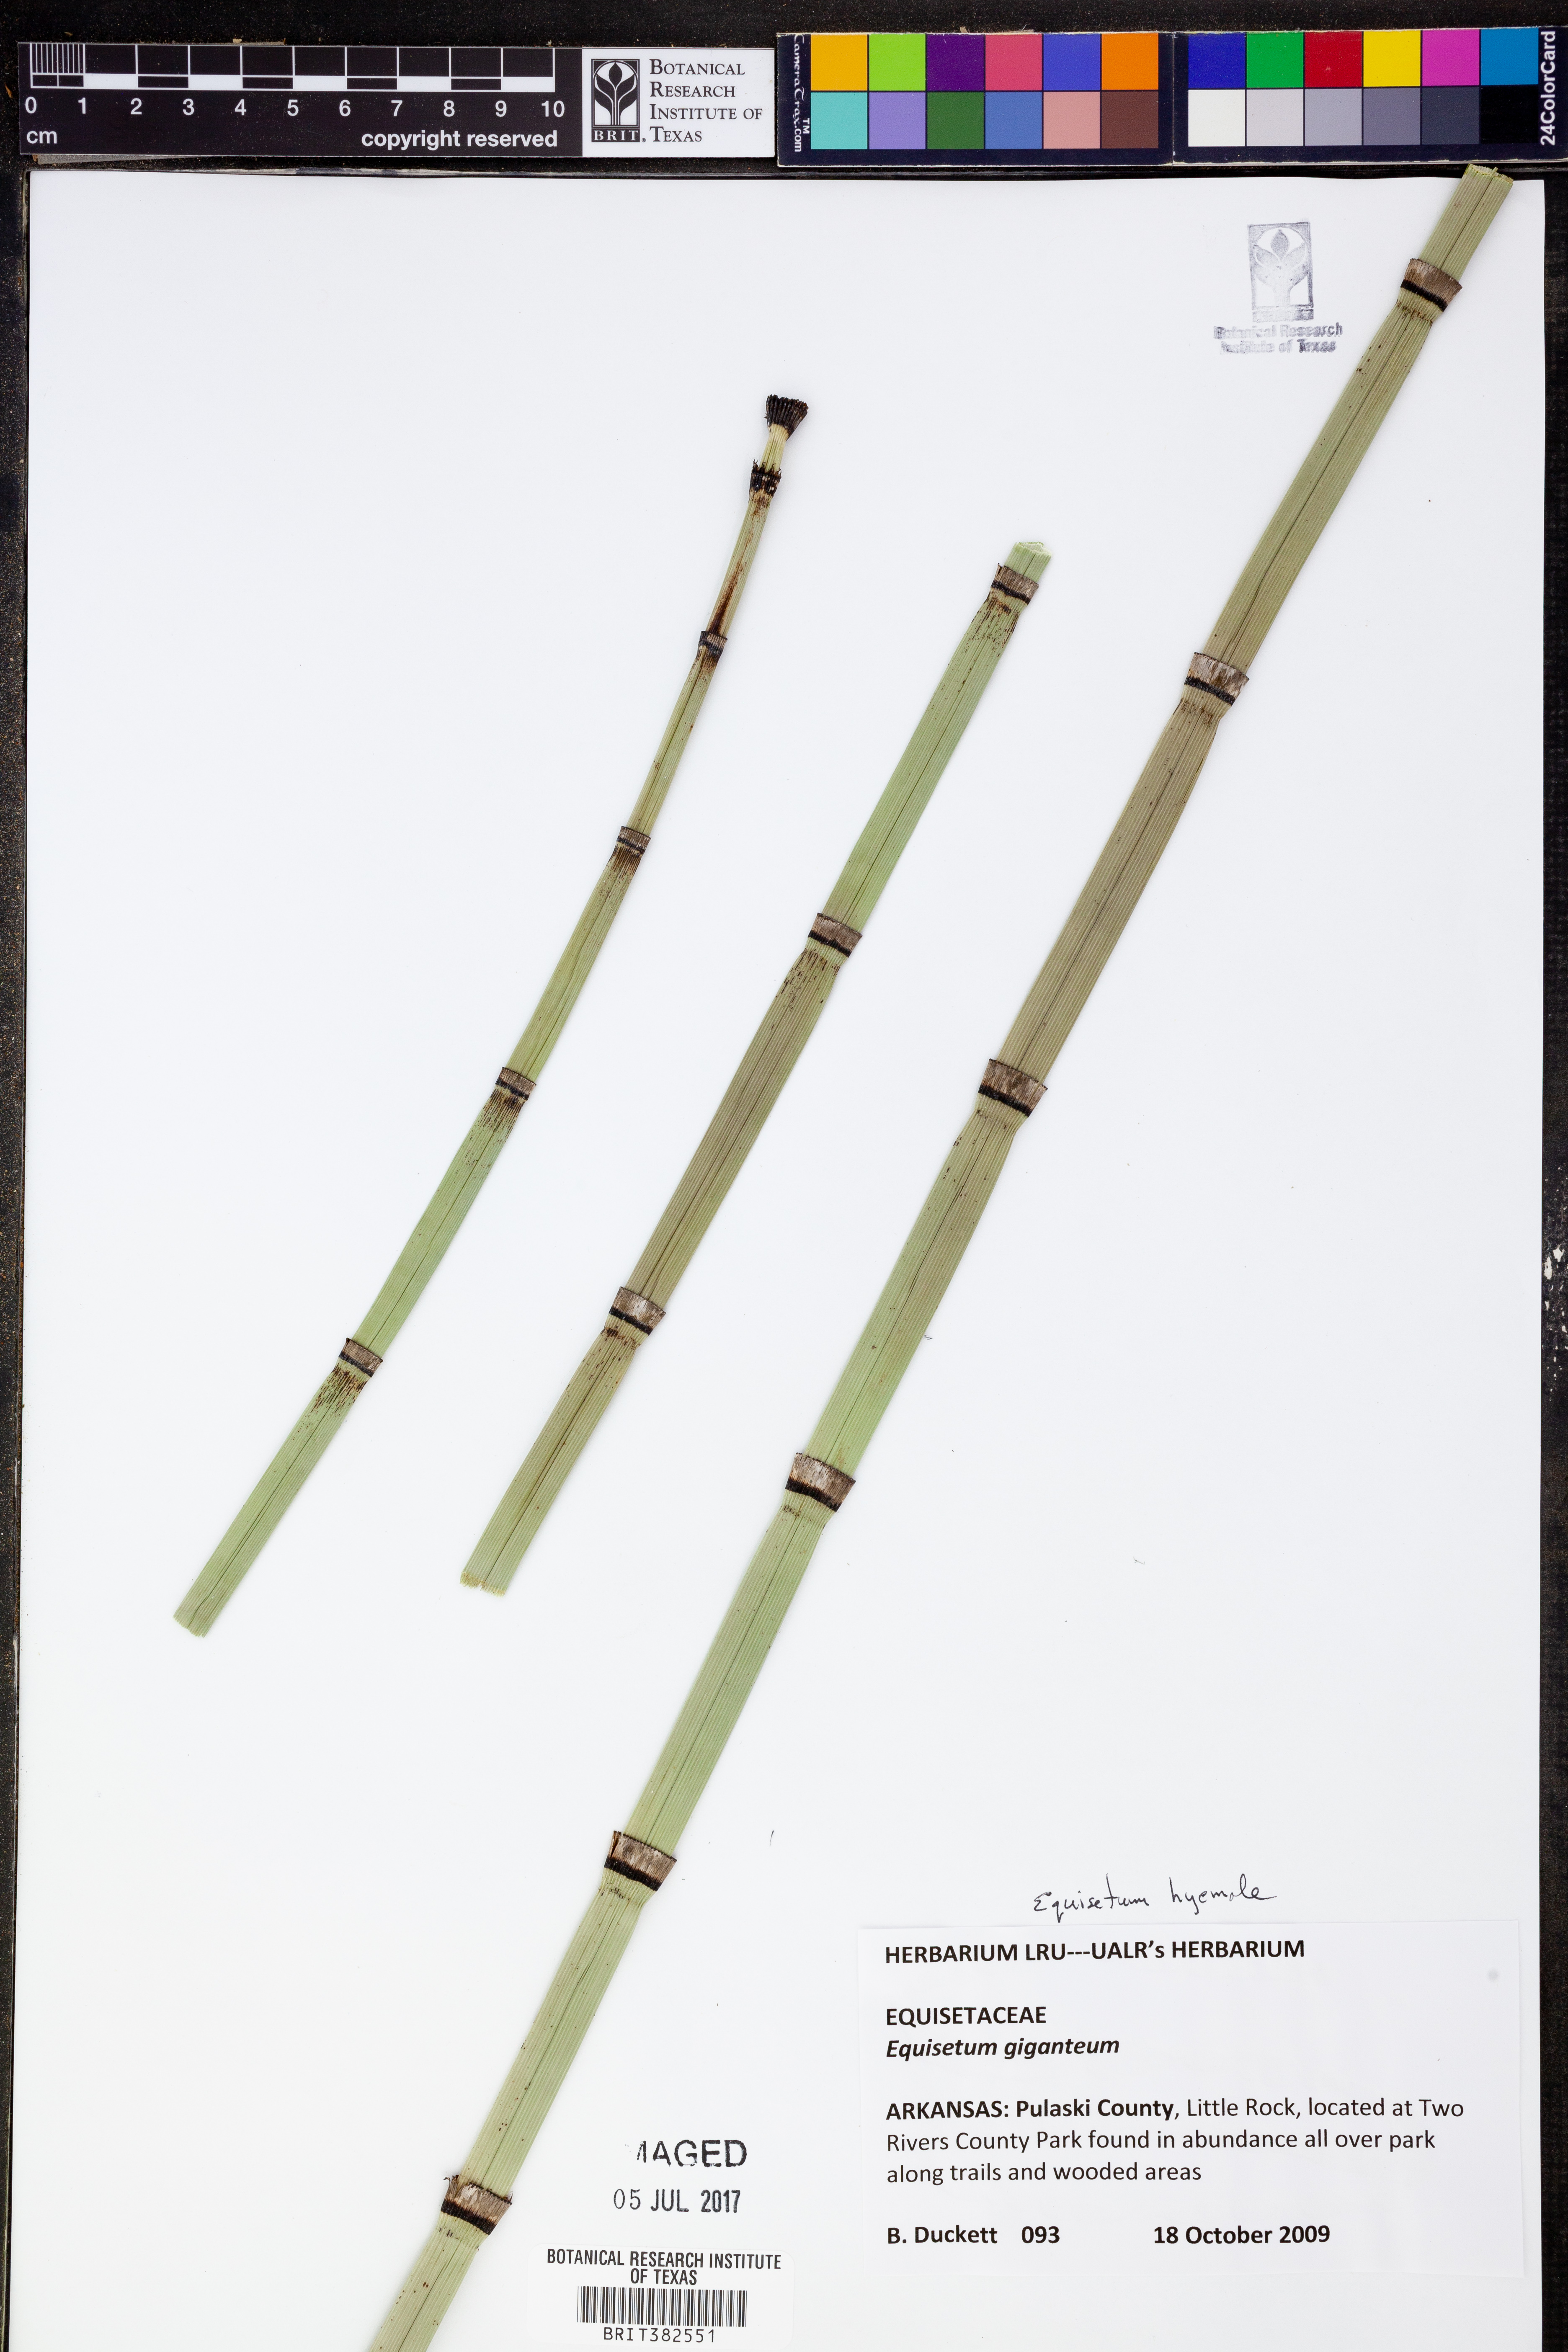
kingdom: Plantae
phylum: Tracheophyta
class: Polypodiopsida
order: Equisetales
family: Equisetaceae
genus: Equisetum
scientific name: Equisetum hyemale
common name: Rough horsetail
